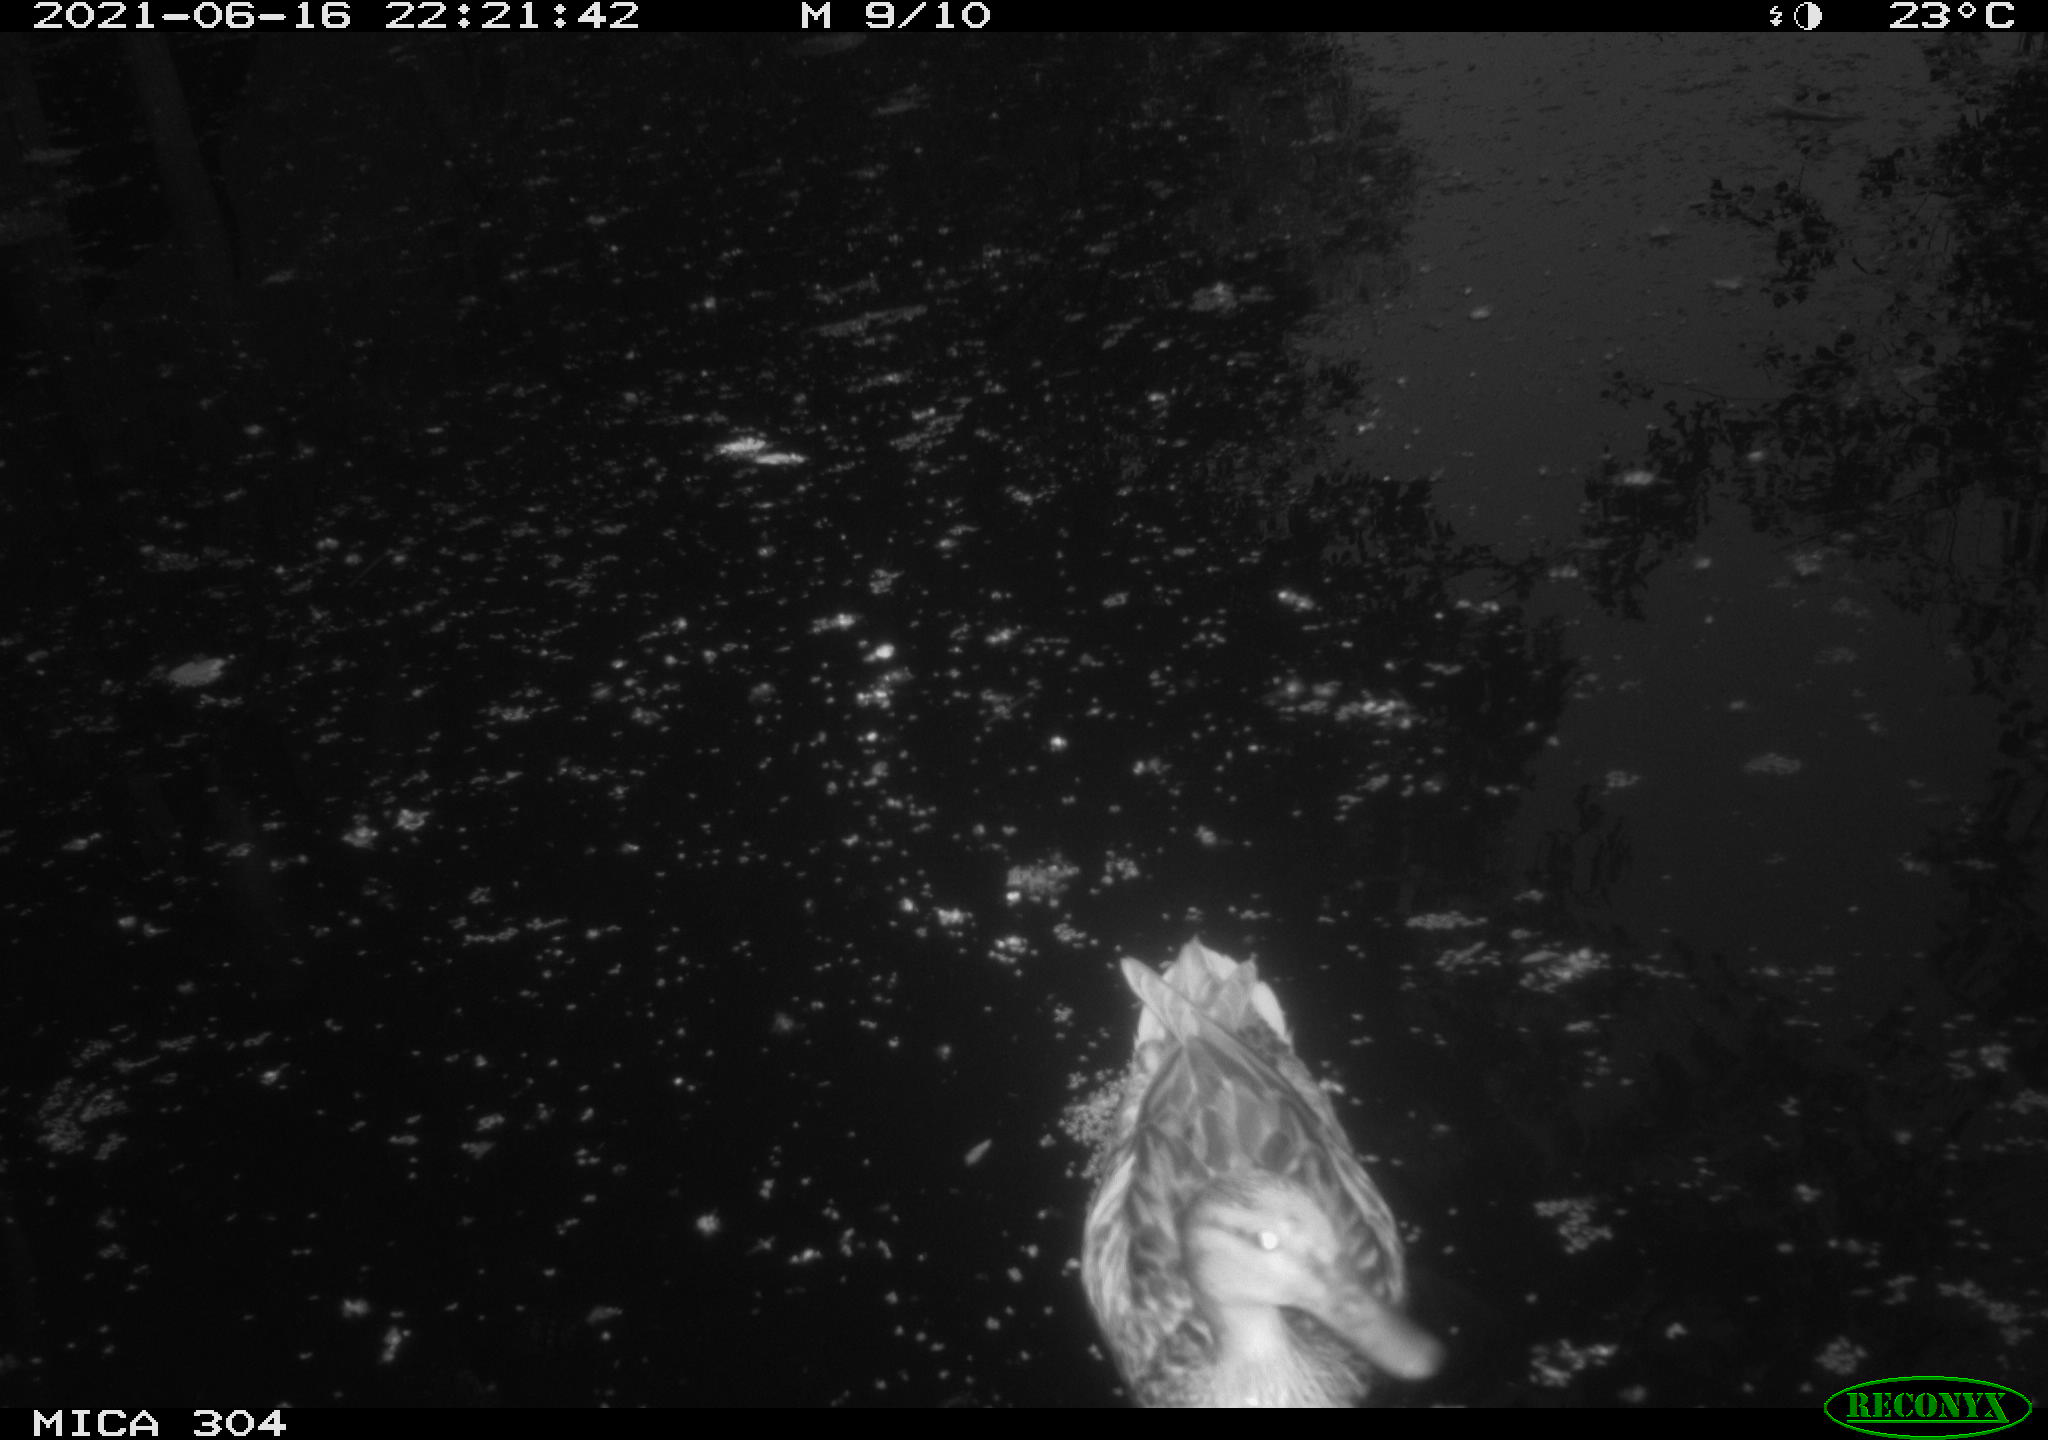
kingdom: Animalia
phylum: Chordata
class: Aves
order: Anseriformes
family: Anatidae
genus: Anas
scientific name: Anas platyrhynchos
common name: Mallard
